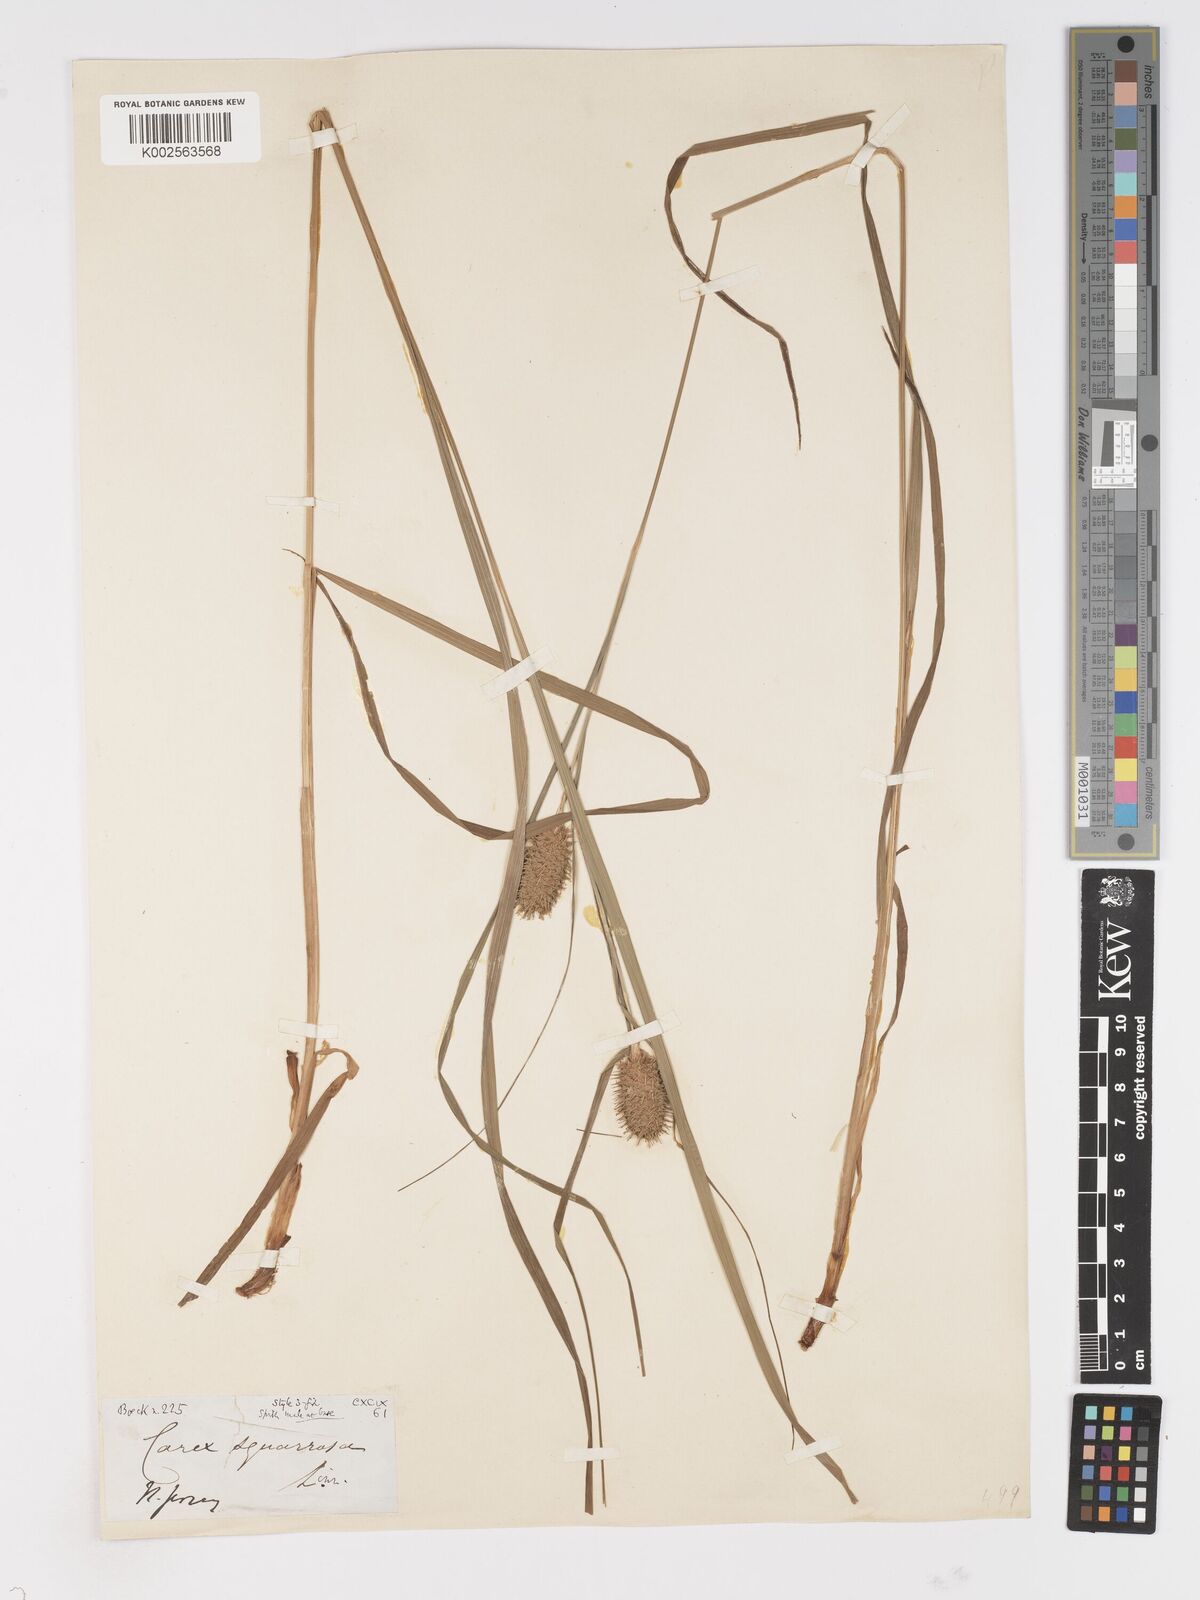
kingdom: Plantae
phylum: Tracheophyta
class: Liliopsida
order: Poales
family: Cyperaceae
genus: Carex
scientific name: Carex squarrosa
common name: Narrow-leaved cattail sedge
